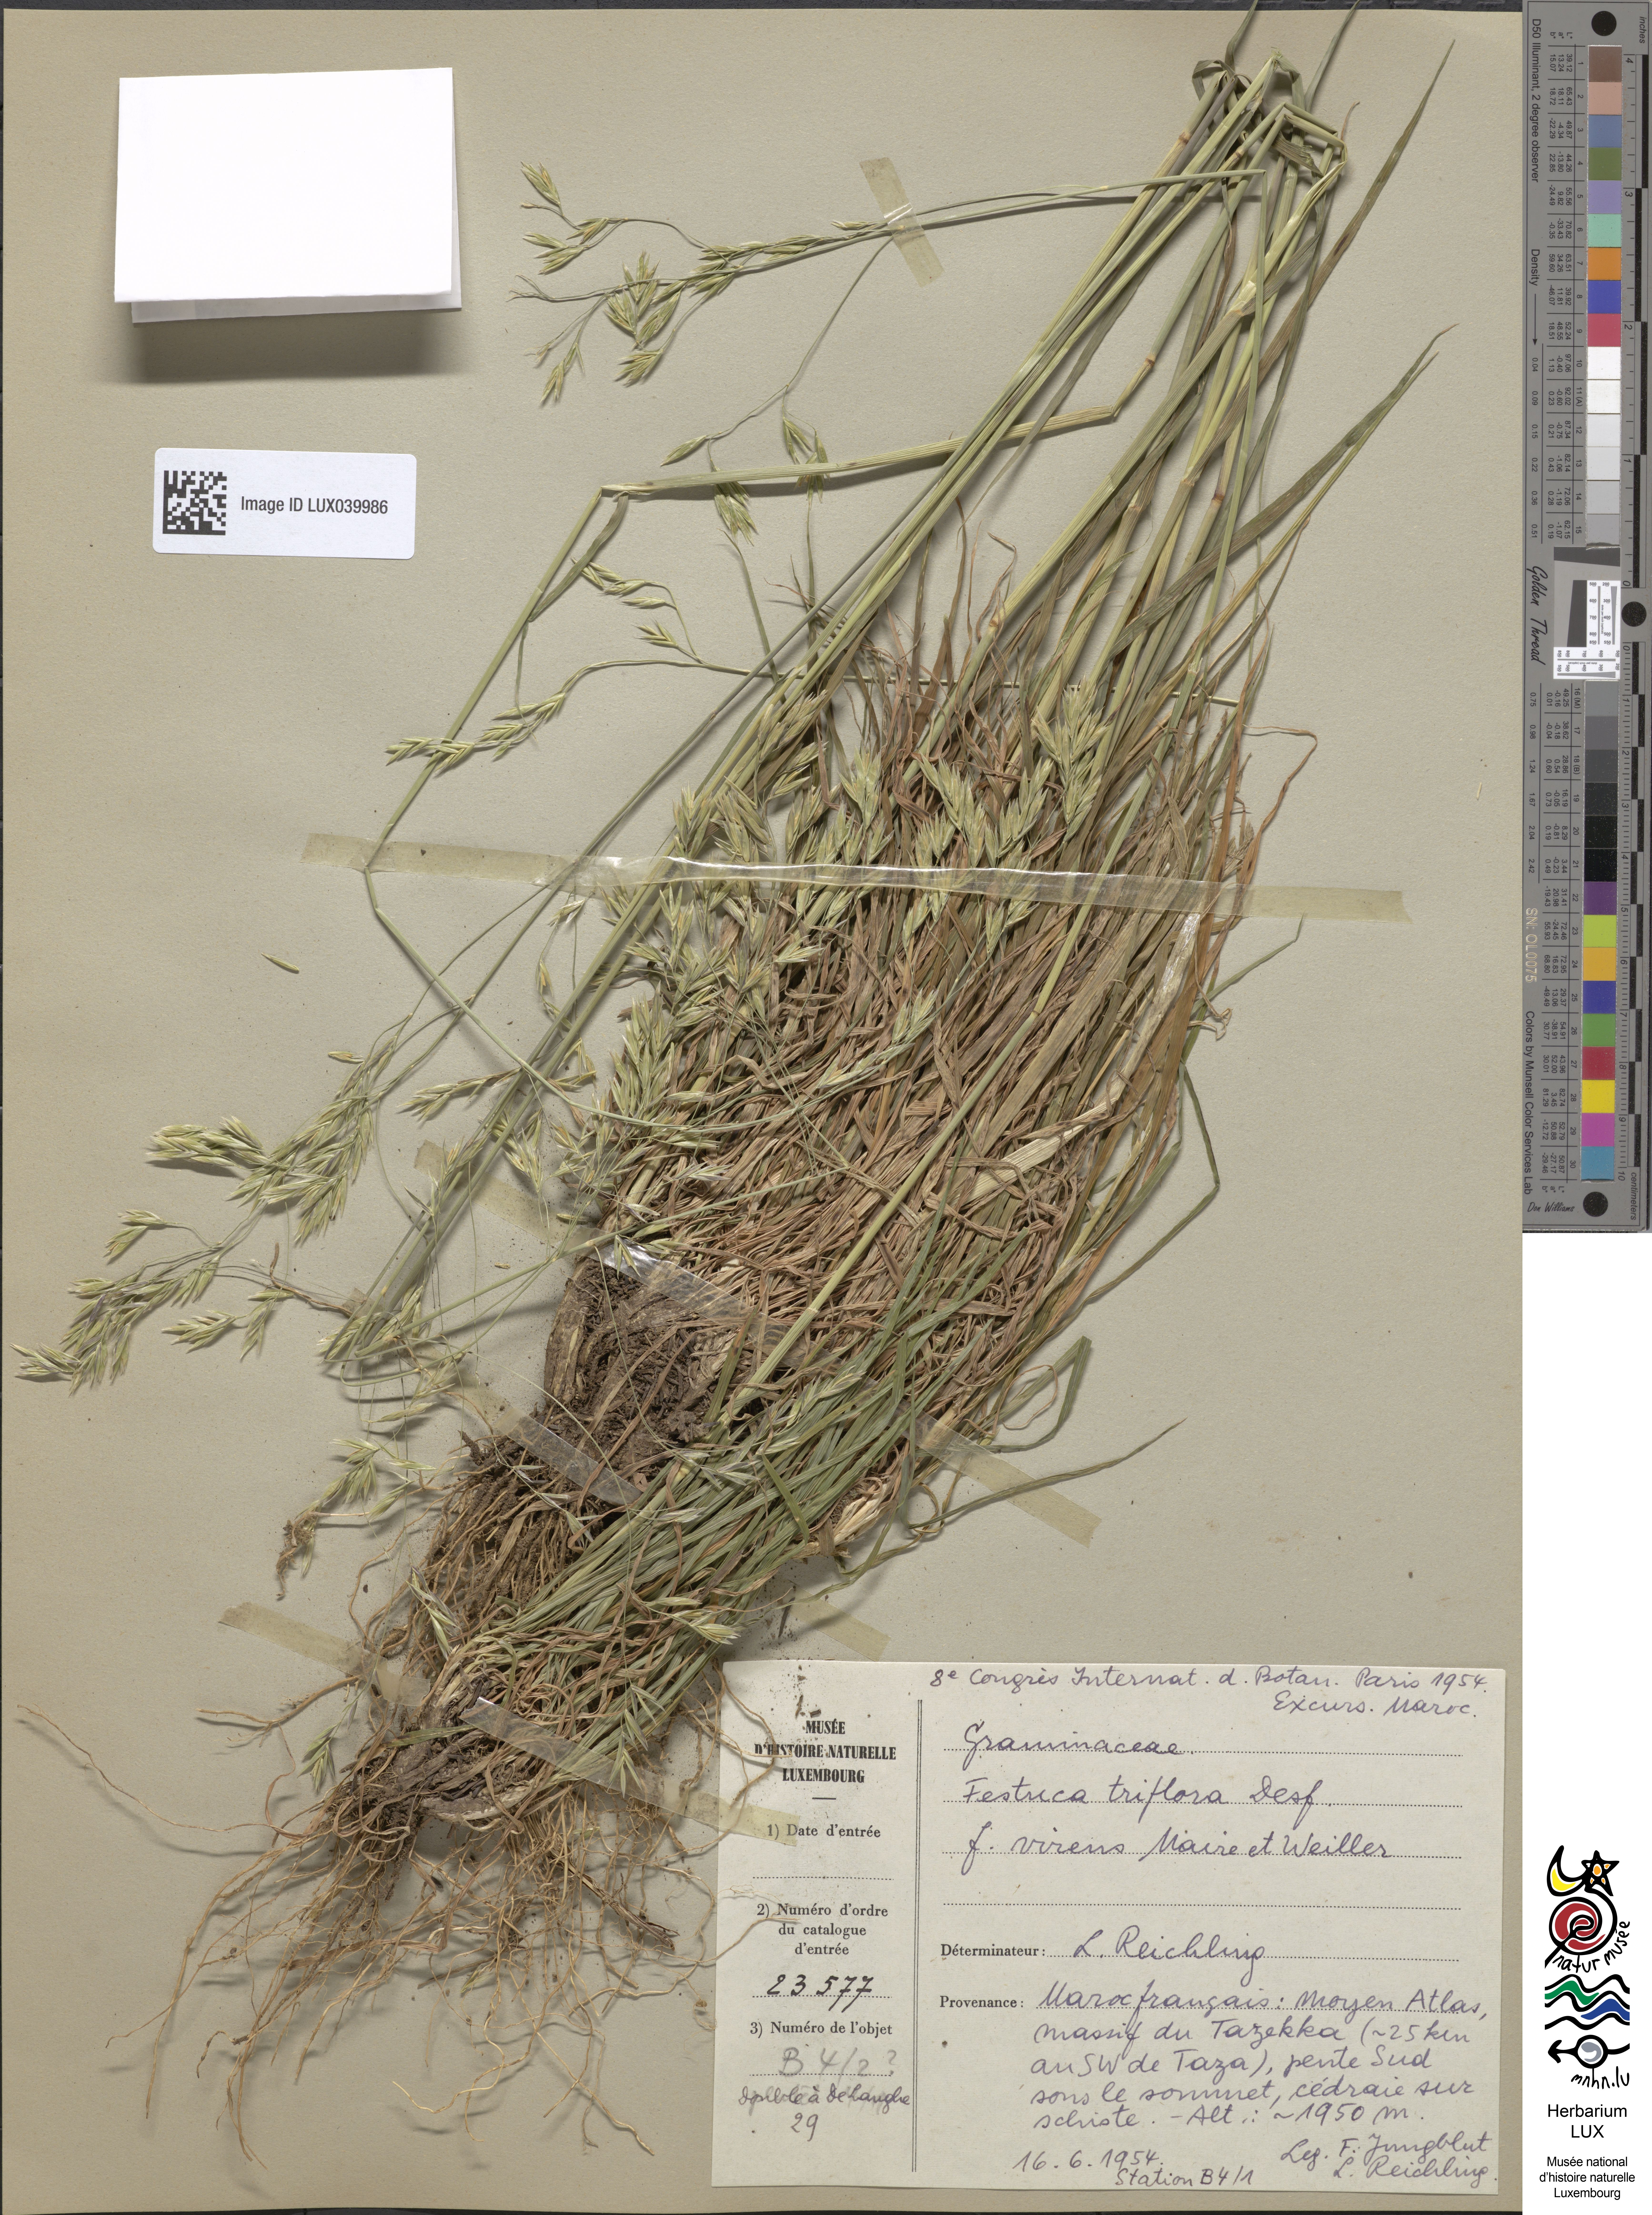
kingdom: Plantae
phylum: Tracheophyta
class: Liliopsida
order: Poales
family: Poaceae
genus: Patzkea
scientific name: Patzkea patula
